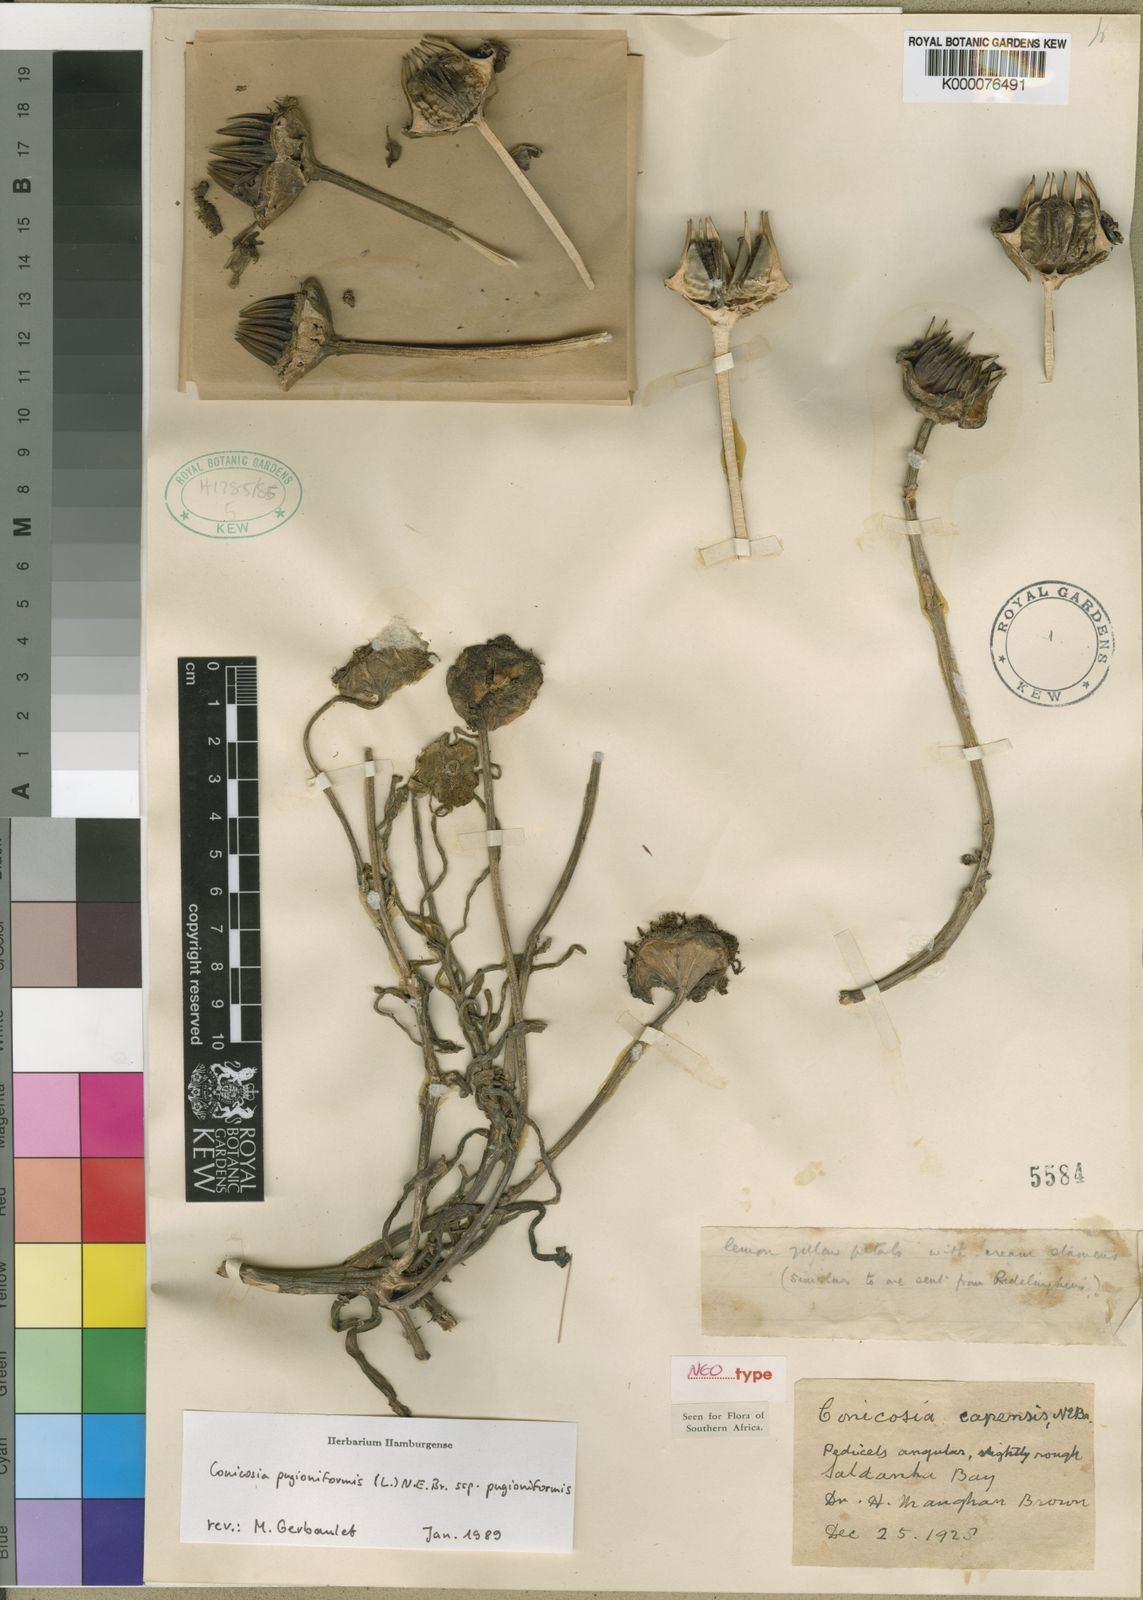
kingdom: Plantae
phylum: Tracheophyta
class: Magnoliopsida
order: Caryophyllales
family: Aizoaceae
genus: Conicosia
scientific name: Conicosia pugioniformis
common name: Narrow-leaved iceplant
